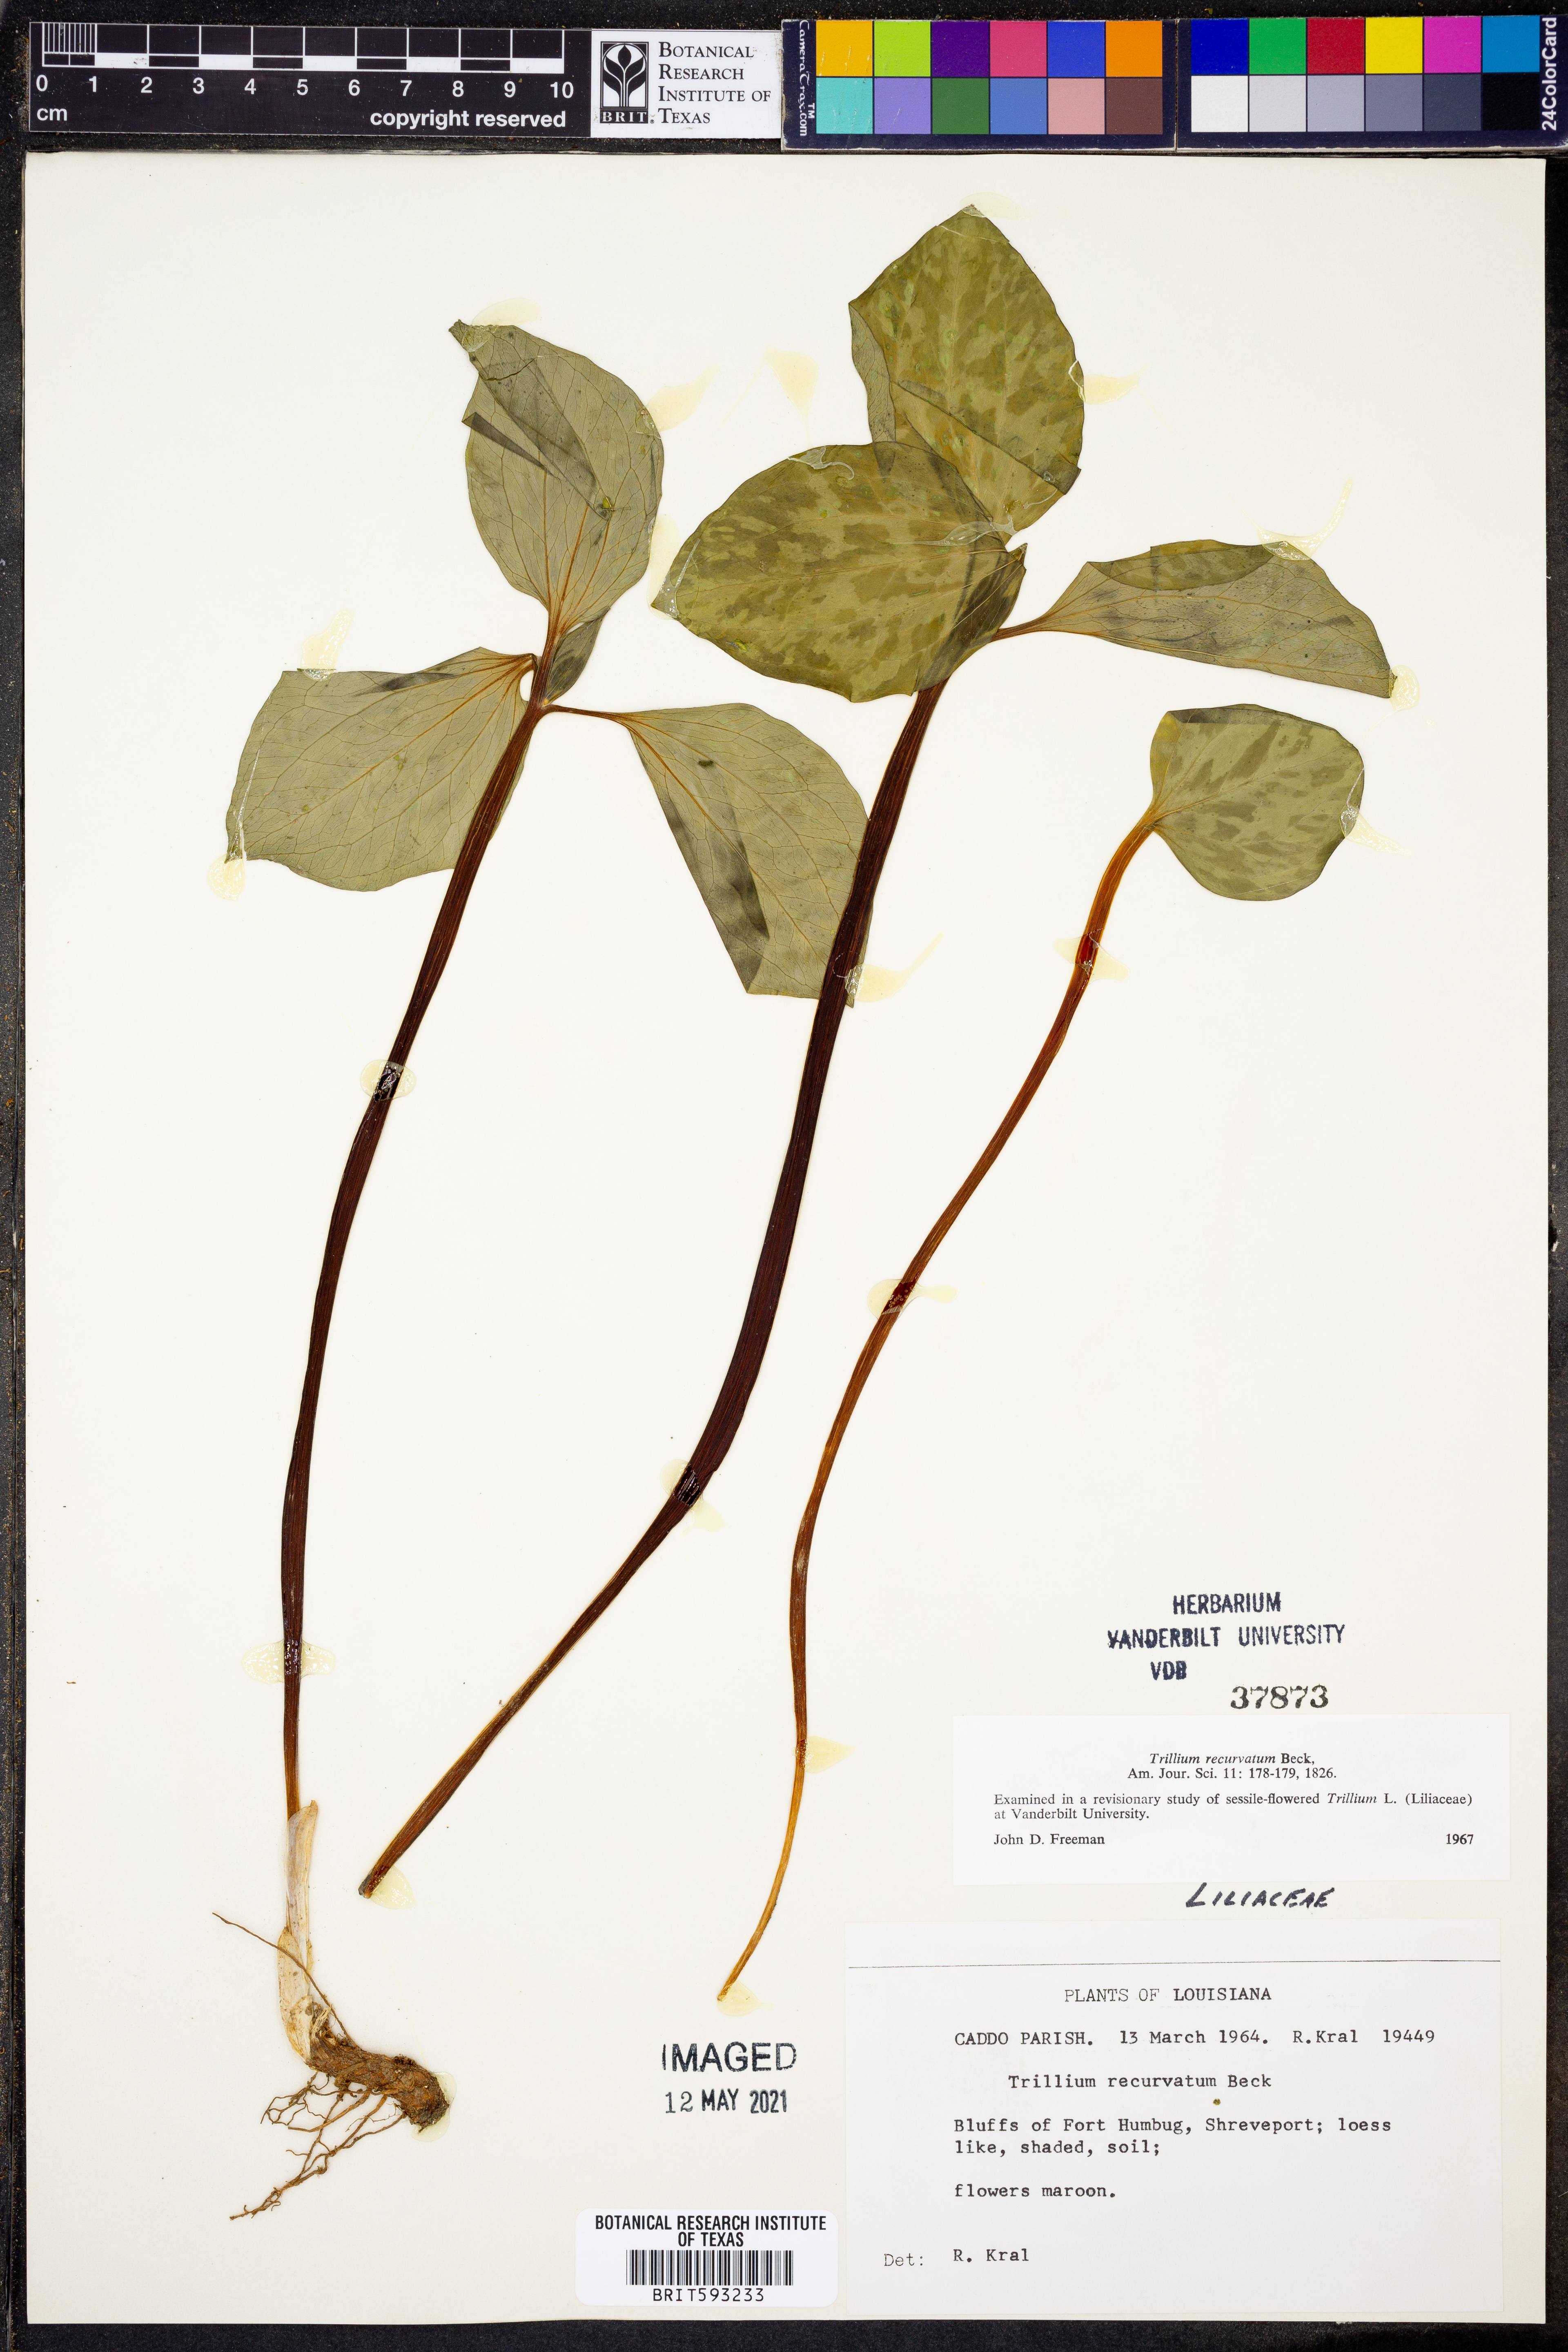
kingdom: Plantae
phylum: Tracheophyta
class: Liliopsida
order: Liliales
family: Melanthiaceae
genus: Trillium
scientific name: Trillium recurvatum
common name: Bloody butcher
